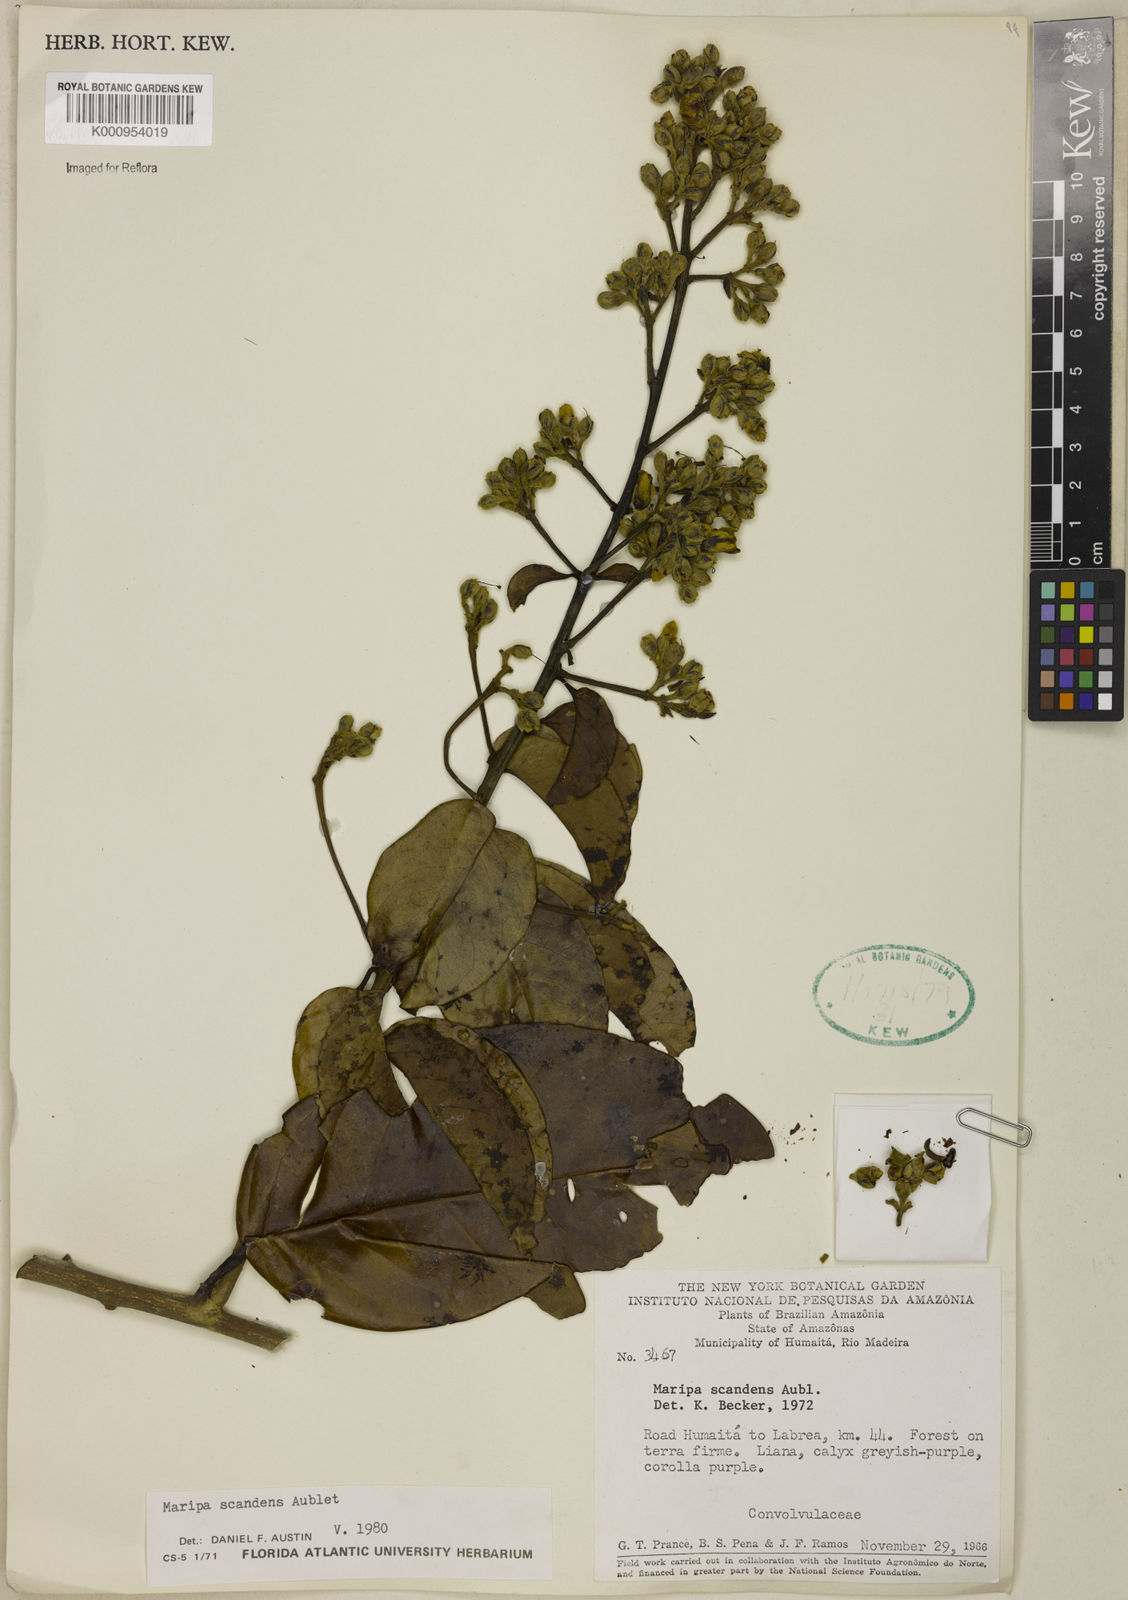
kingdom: Plantae
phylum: Tracheophyta
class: Magnoliopsida
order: Solanales
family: Convolvulaceae
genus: Maripa
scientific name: Maripa scandens
